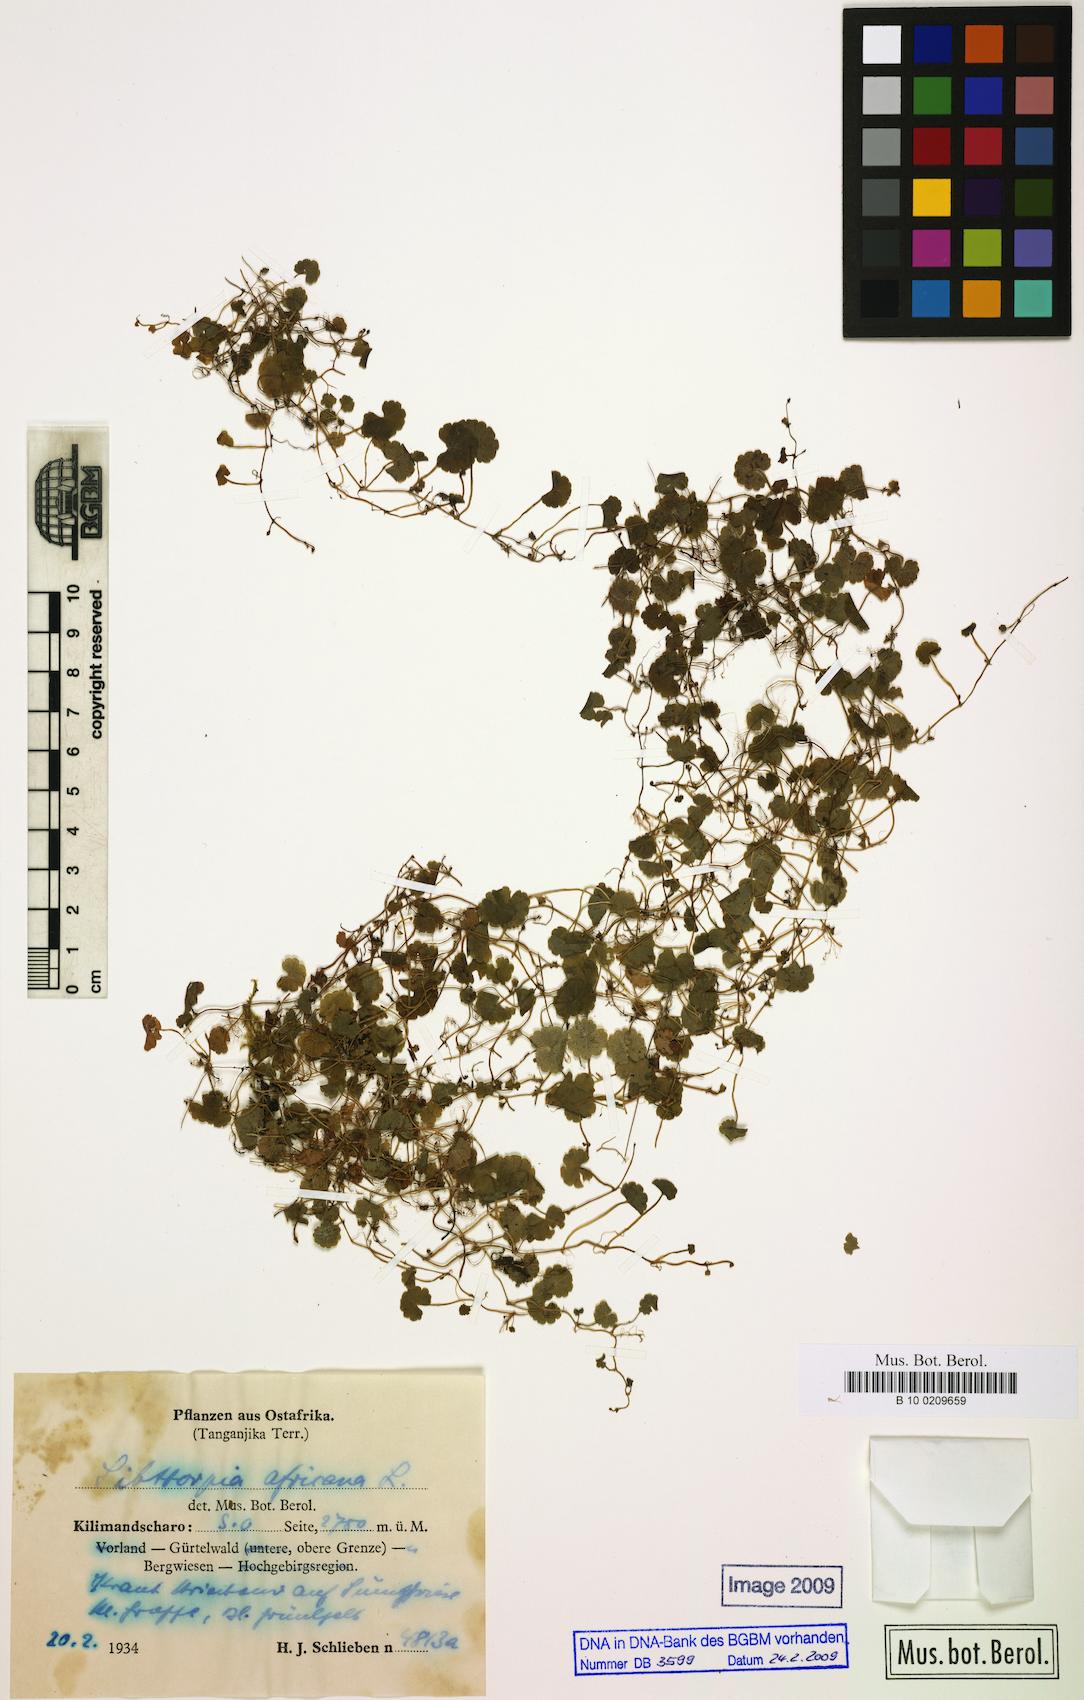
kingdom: Plantae
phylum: Tracheophyta
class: Magnoliopsida
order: Lamiales
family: Plantaginaceae
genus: Sibthorpia
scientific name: Sibthorpia europaea
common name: Cornish moneywort
